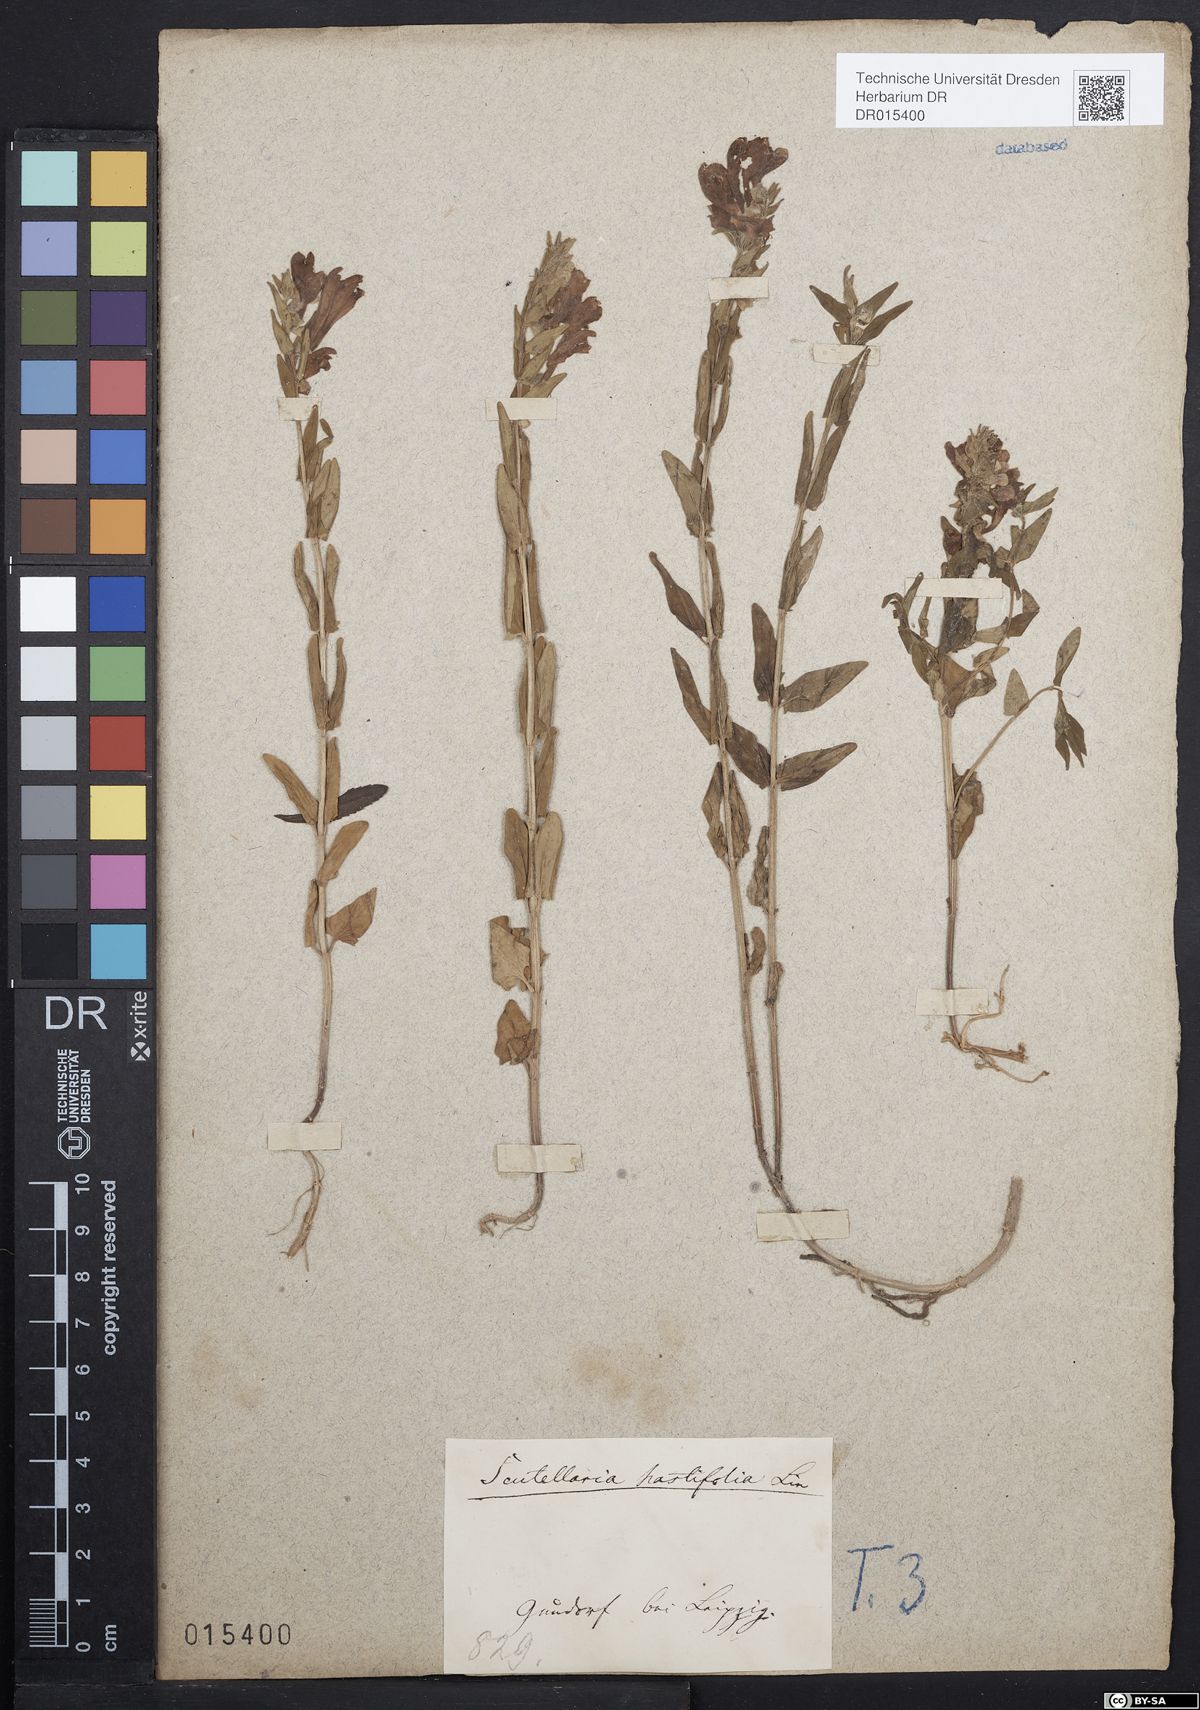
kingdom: Plantae
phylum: Tracheophyta
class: Magnoliopsida
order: Lamiales
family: Lamiaceae
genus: Scutellaria
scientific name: Scutellaria hastifolia
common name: Norfolk skullcap
